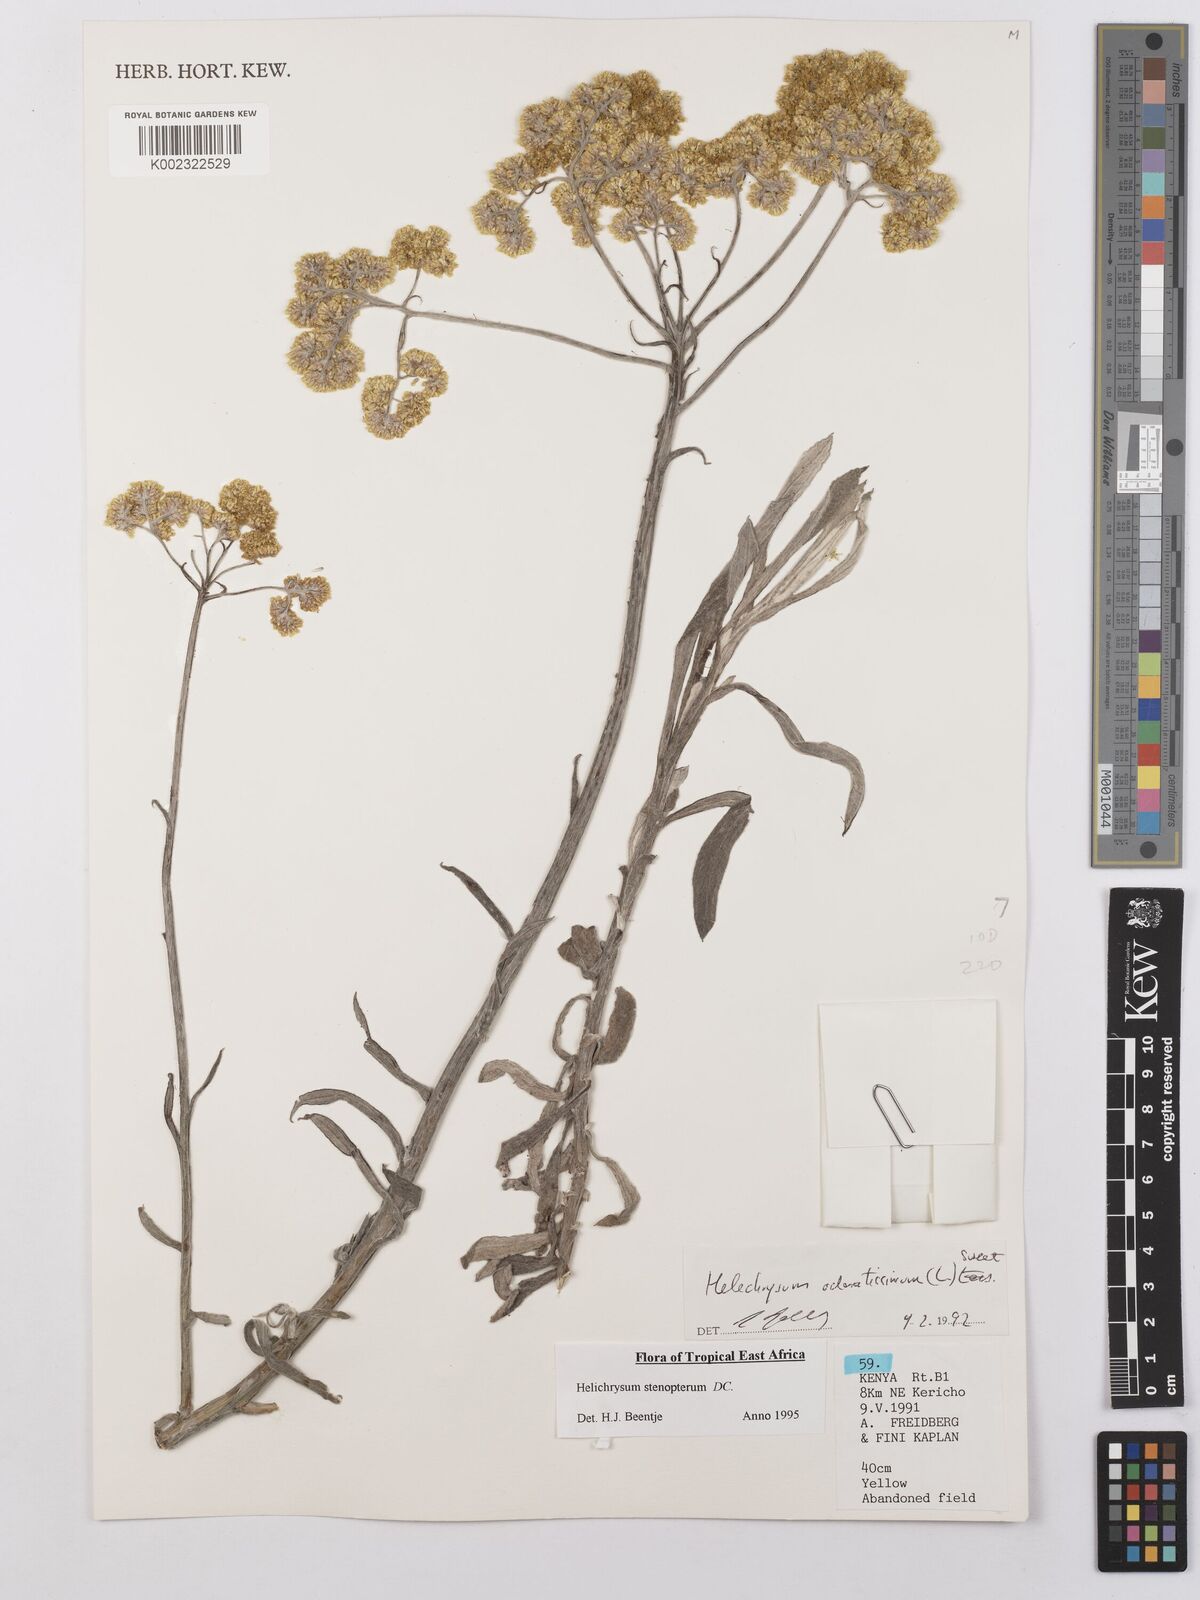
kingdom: Plantae
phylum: Tracheophyta
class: Magnoliopsida
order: Asterales
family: Asteraceae
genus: Helichrysum
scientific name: Helichrysum stenopterum
